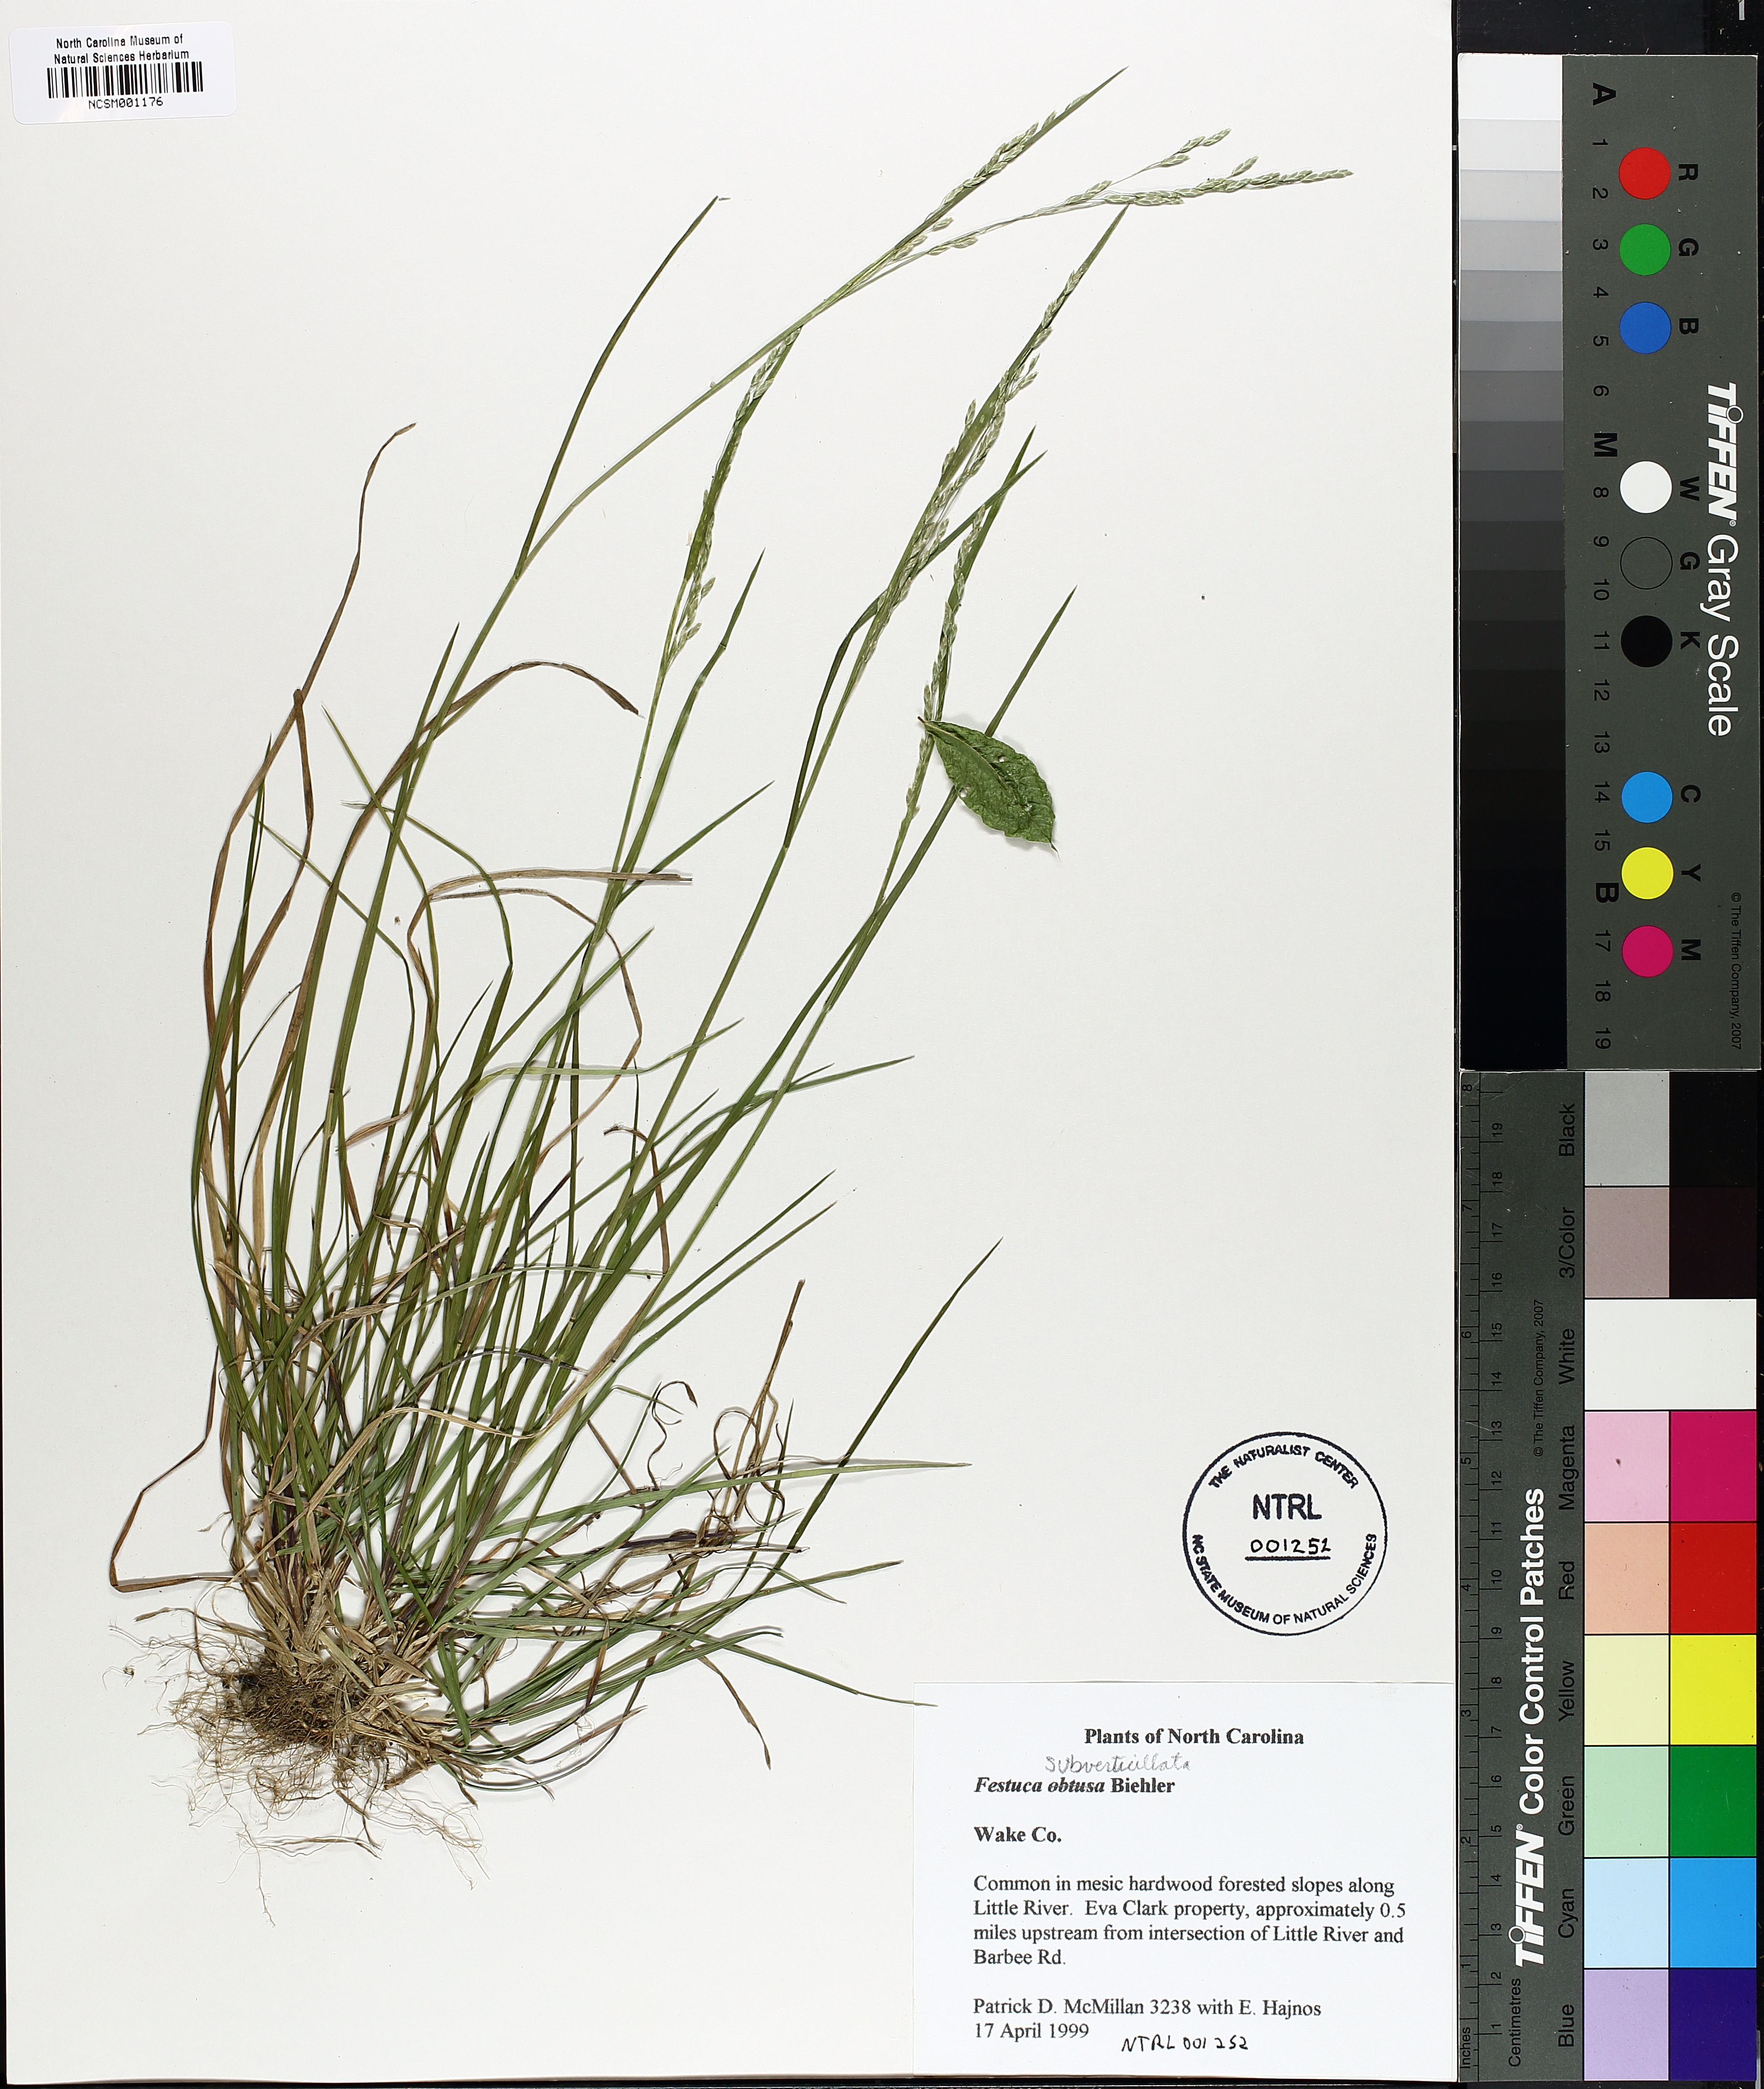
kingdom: Plantae
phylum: Tracheophyta
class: Liliopsida
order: Poales
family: Poaceae
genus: Festuca
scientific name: Festuca subverticillata
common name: Nodding fescue
